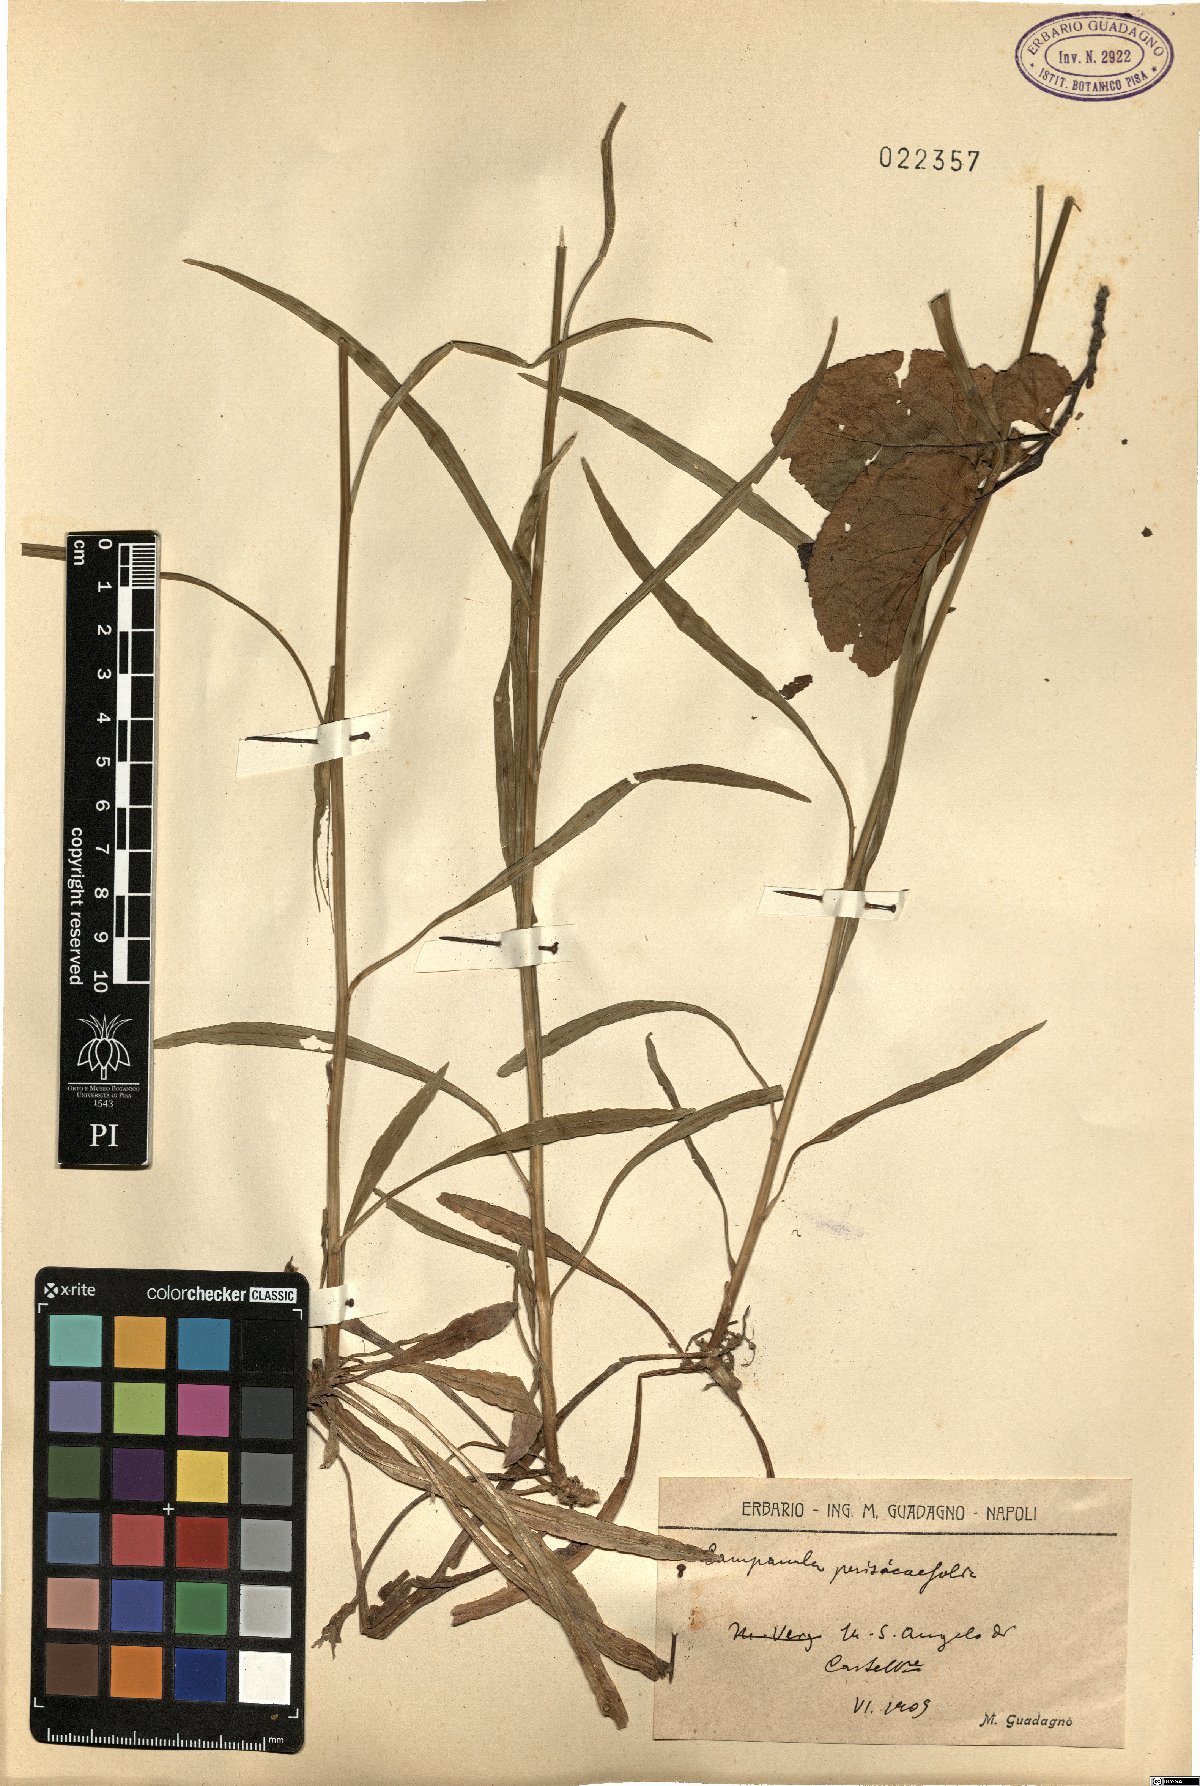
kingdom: Plantae
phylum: Tracheophyta
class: Magnoliopsida
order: Asterales
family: Campanulaceae
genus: Campanula
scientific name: Campanula persicifolia
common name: Peach-leaved bellflower
